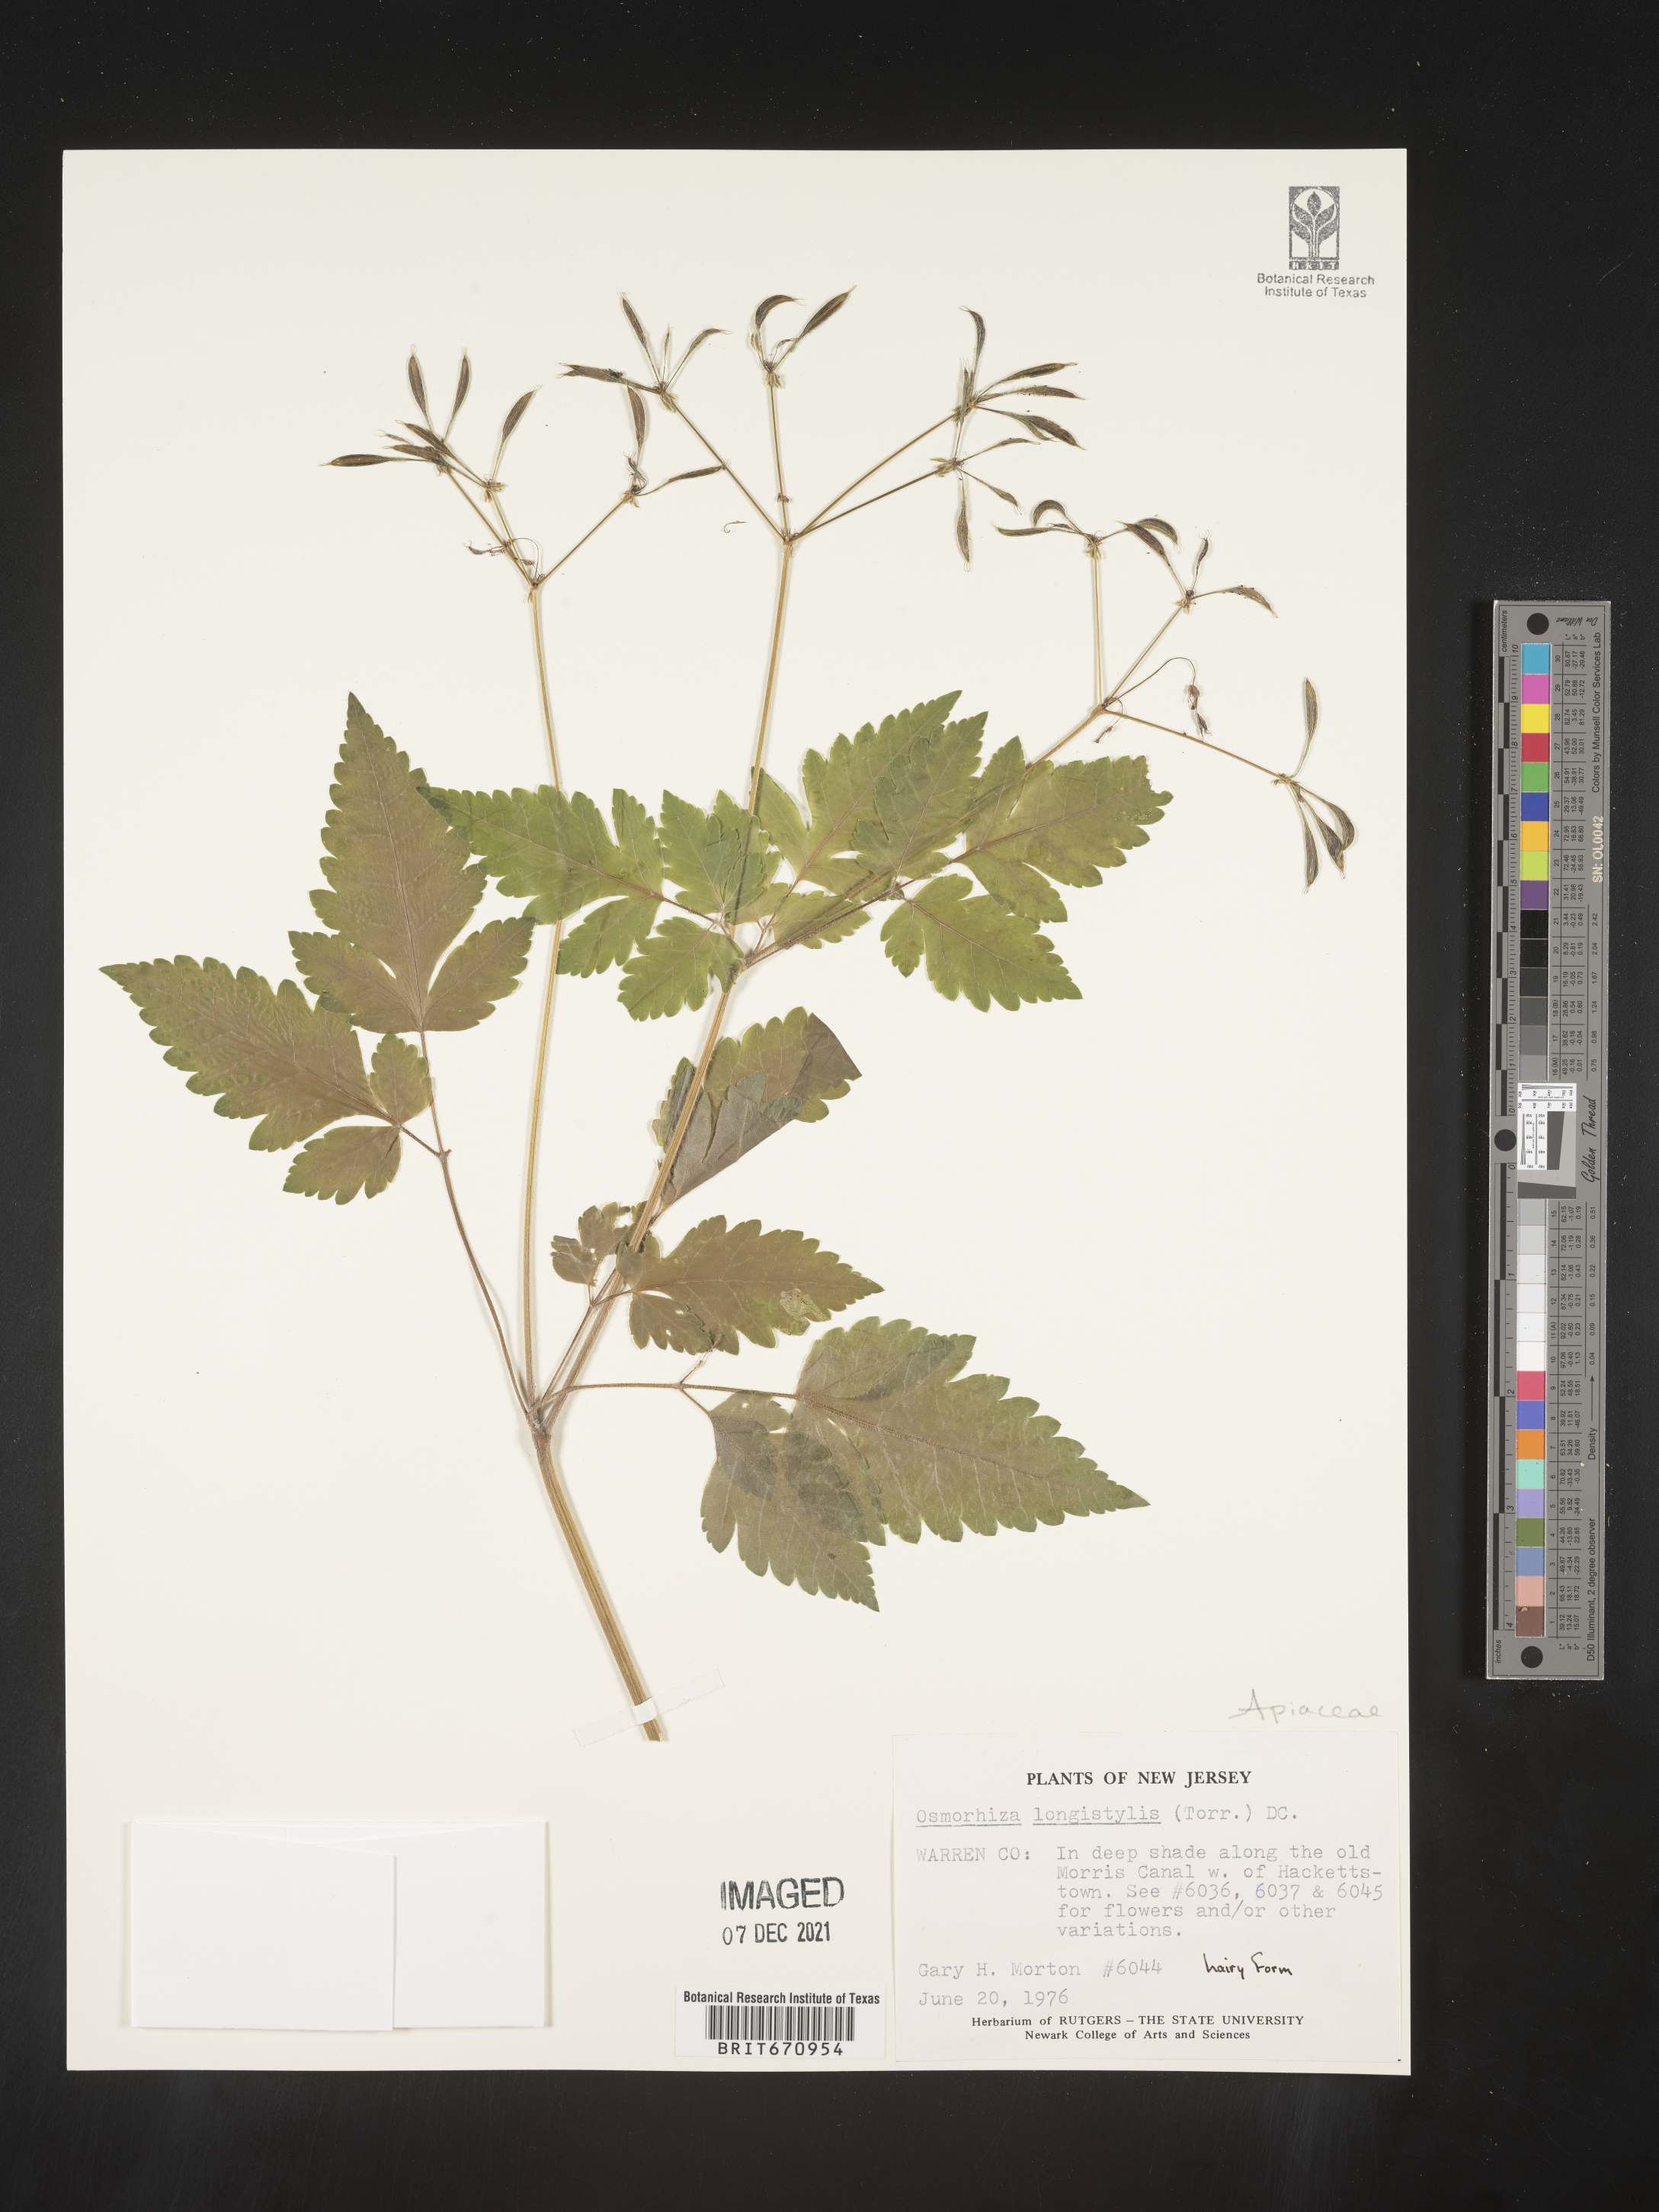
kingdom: Plantae
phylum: Tracheophyta
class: Magnoliopsida
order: Apiales
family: Apiaceae
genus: Osmorhiza
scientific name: Osmorhiza longistylis
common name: Smooth sweet cicely
